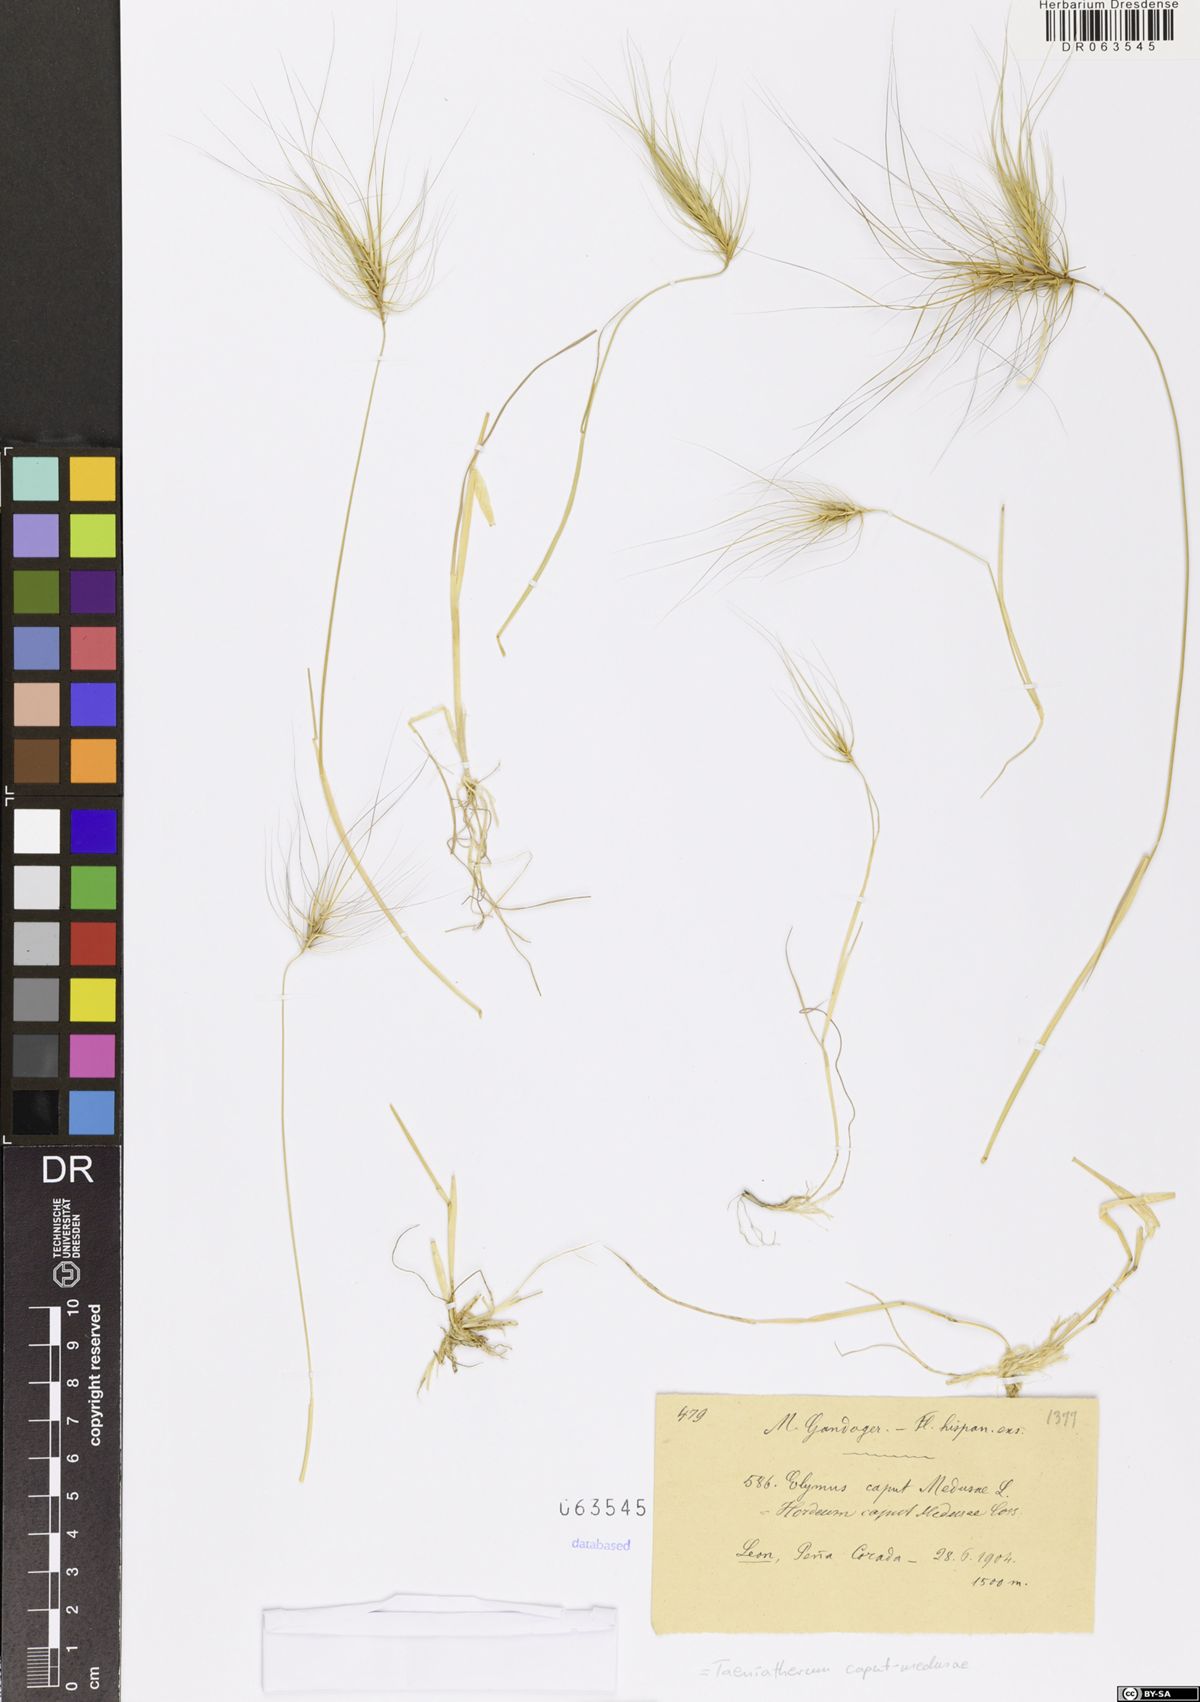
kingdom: Plantae
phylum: Tracheophyta
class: Liliopsida
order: Poales
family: Poaceae
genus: Taeniatherum
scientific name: Taeniatherum caput-medusae
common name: Medusahead
